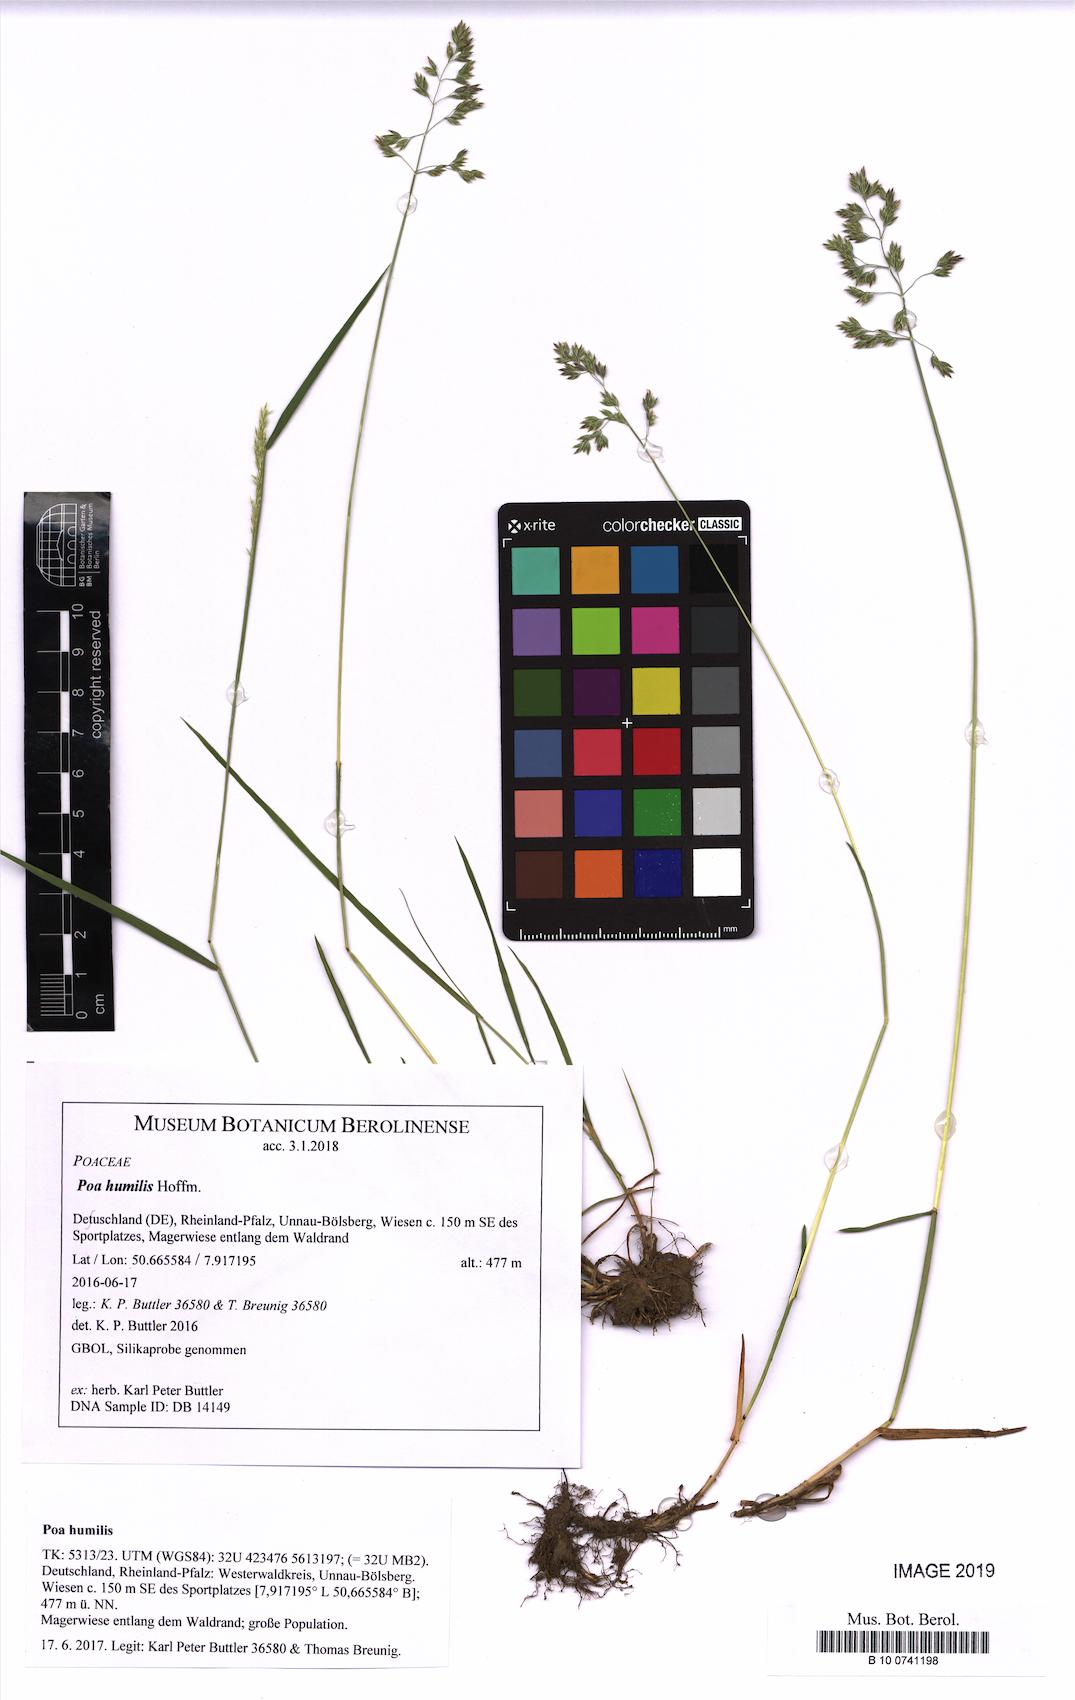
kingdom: Plantae
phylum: Tracheophyta
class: Liliopsida
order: Poales
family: Poaceae
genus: Poa
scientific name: Poa humilis
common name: Spreading meadow-grass
